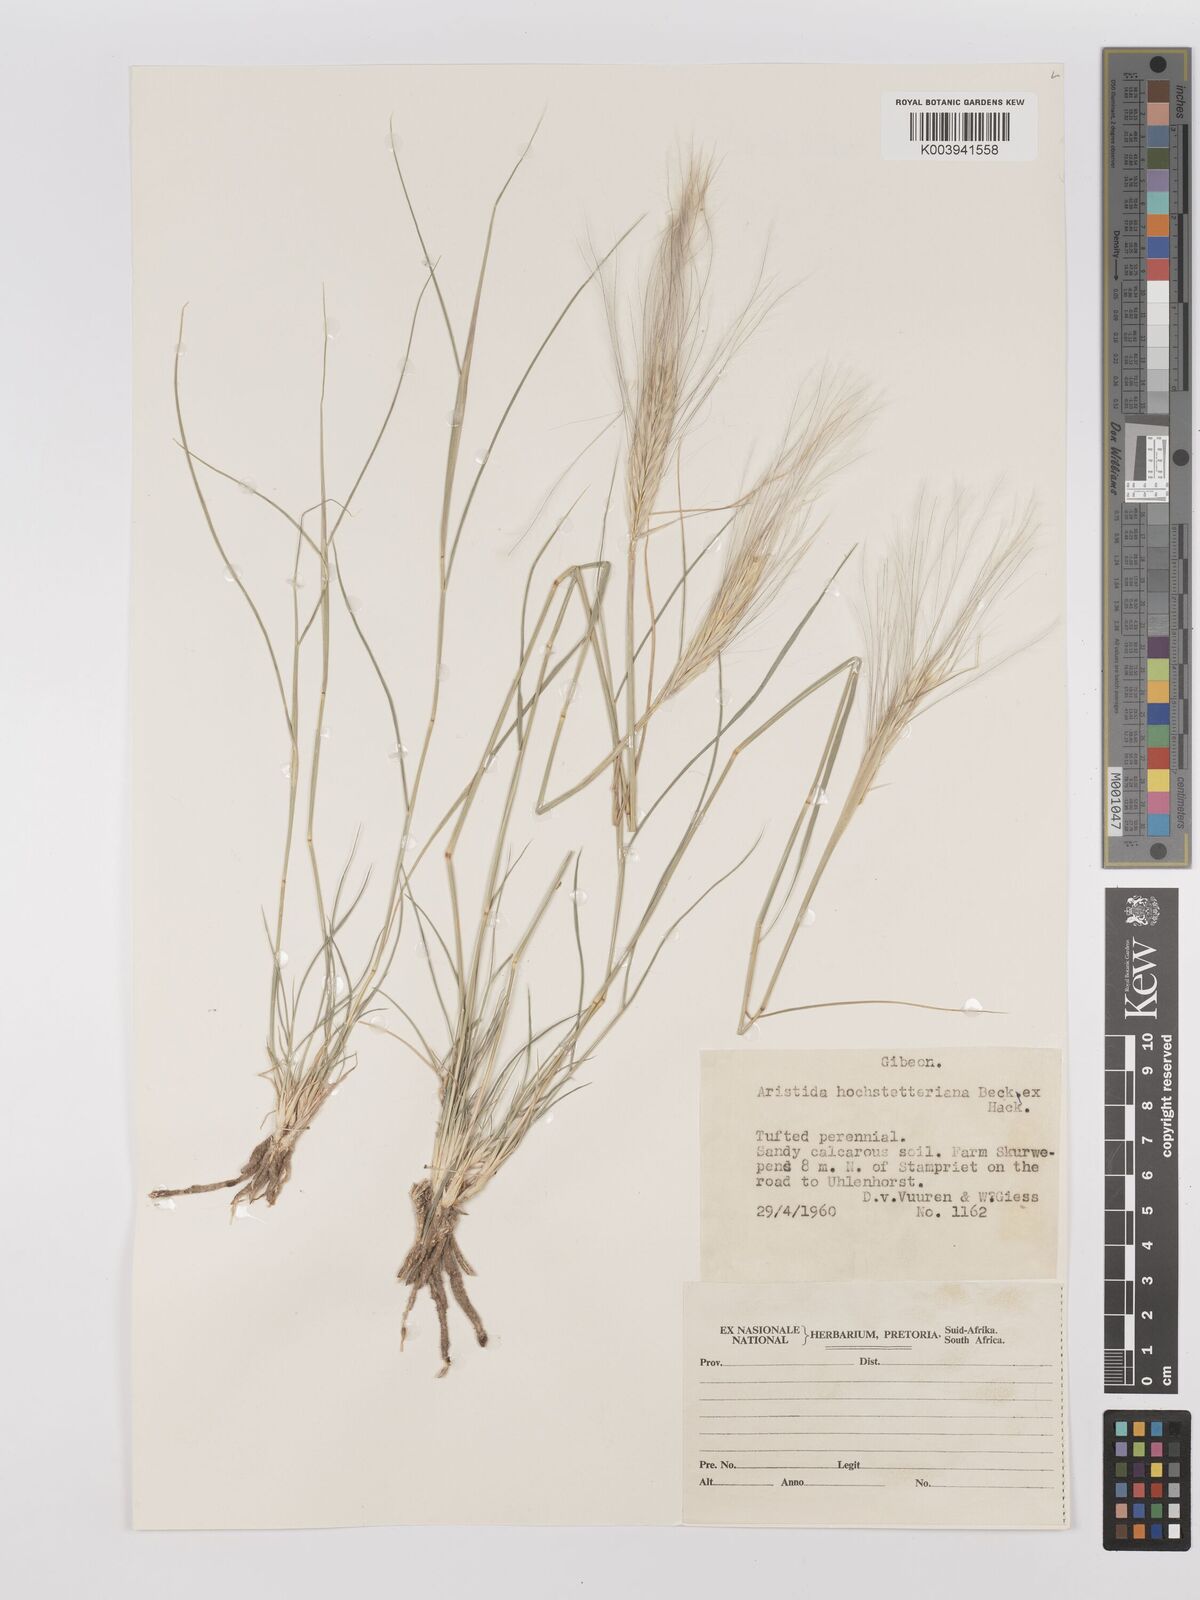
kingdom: Plantae
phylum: Tracheophyta
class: Liliopsida
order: Poales
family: Poaceae
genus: Stipagrostis
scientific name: Stipagrostis hochstetteriana
